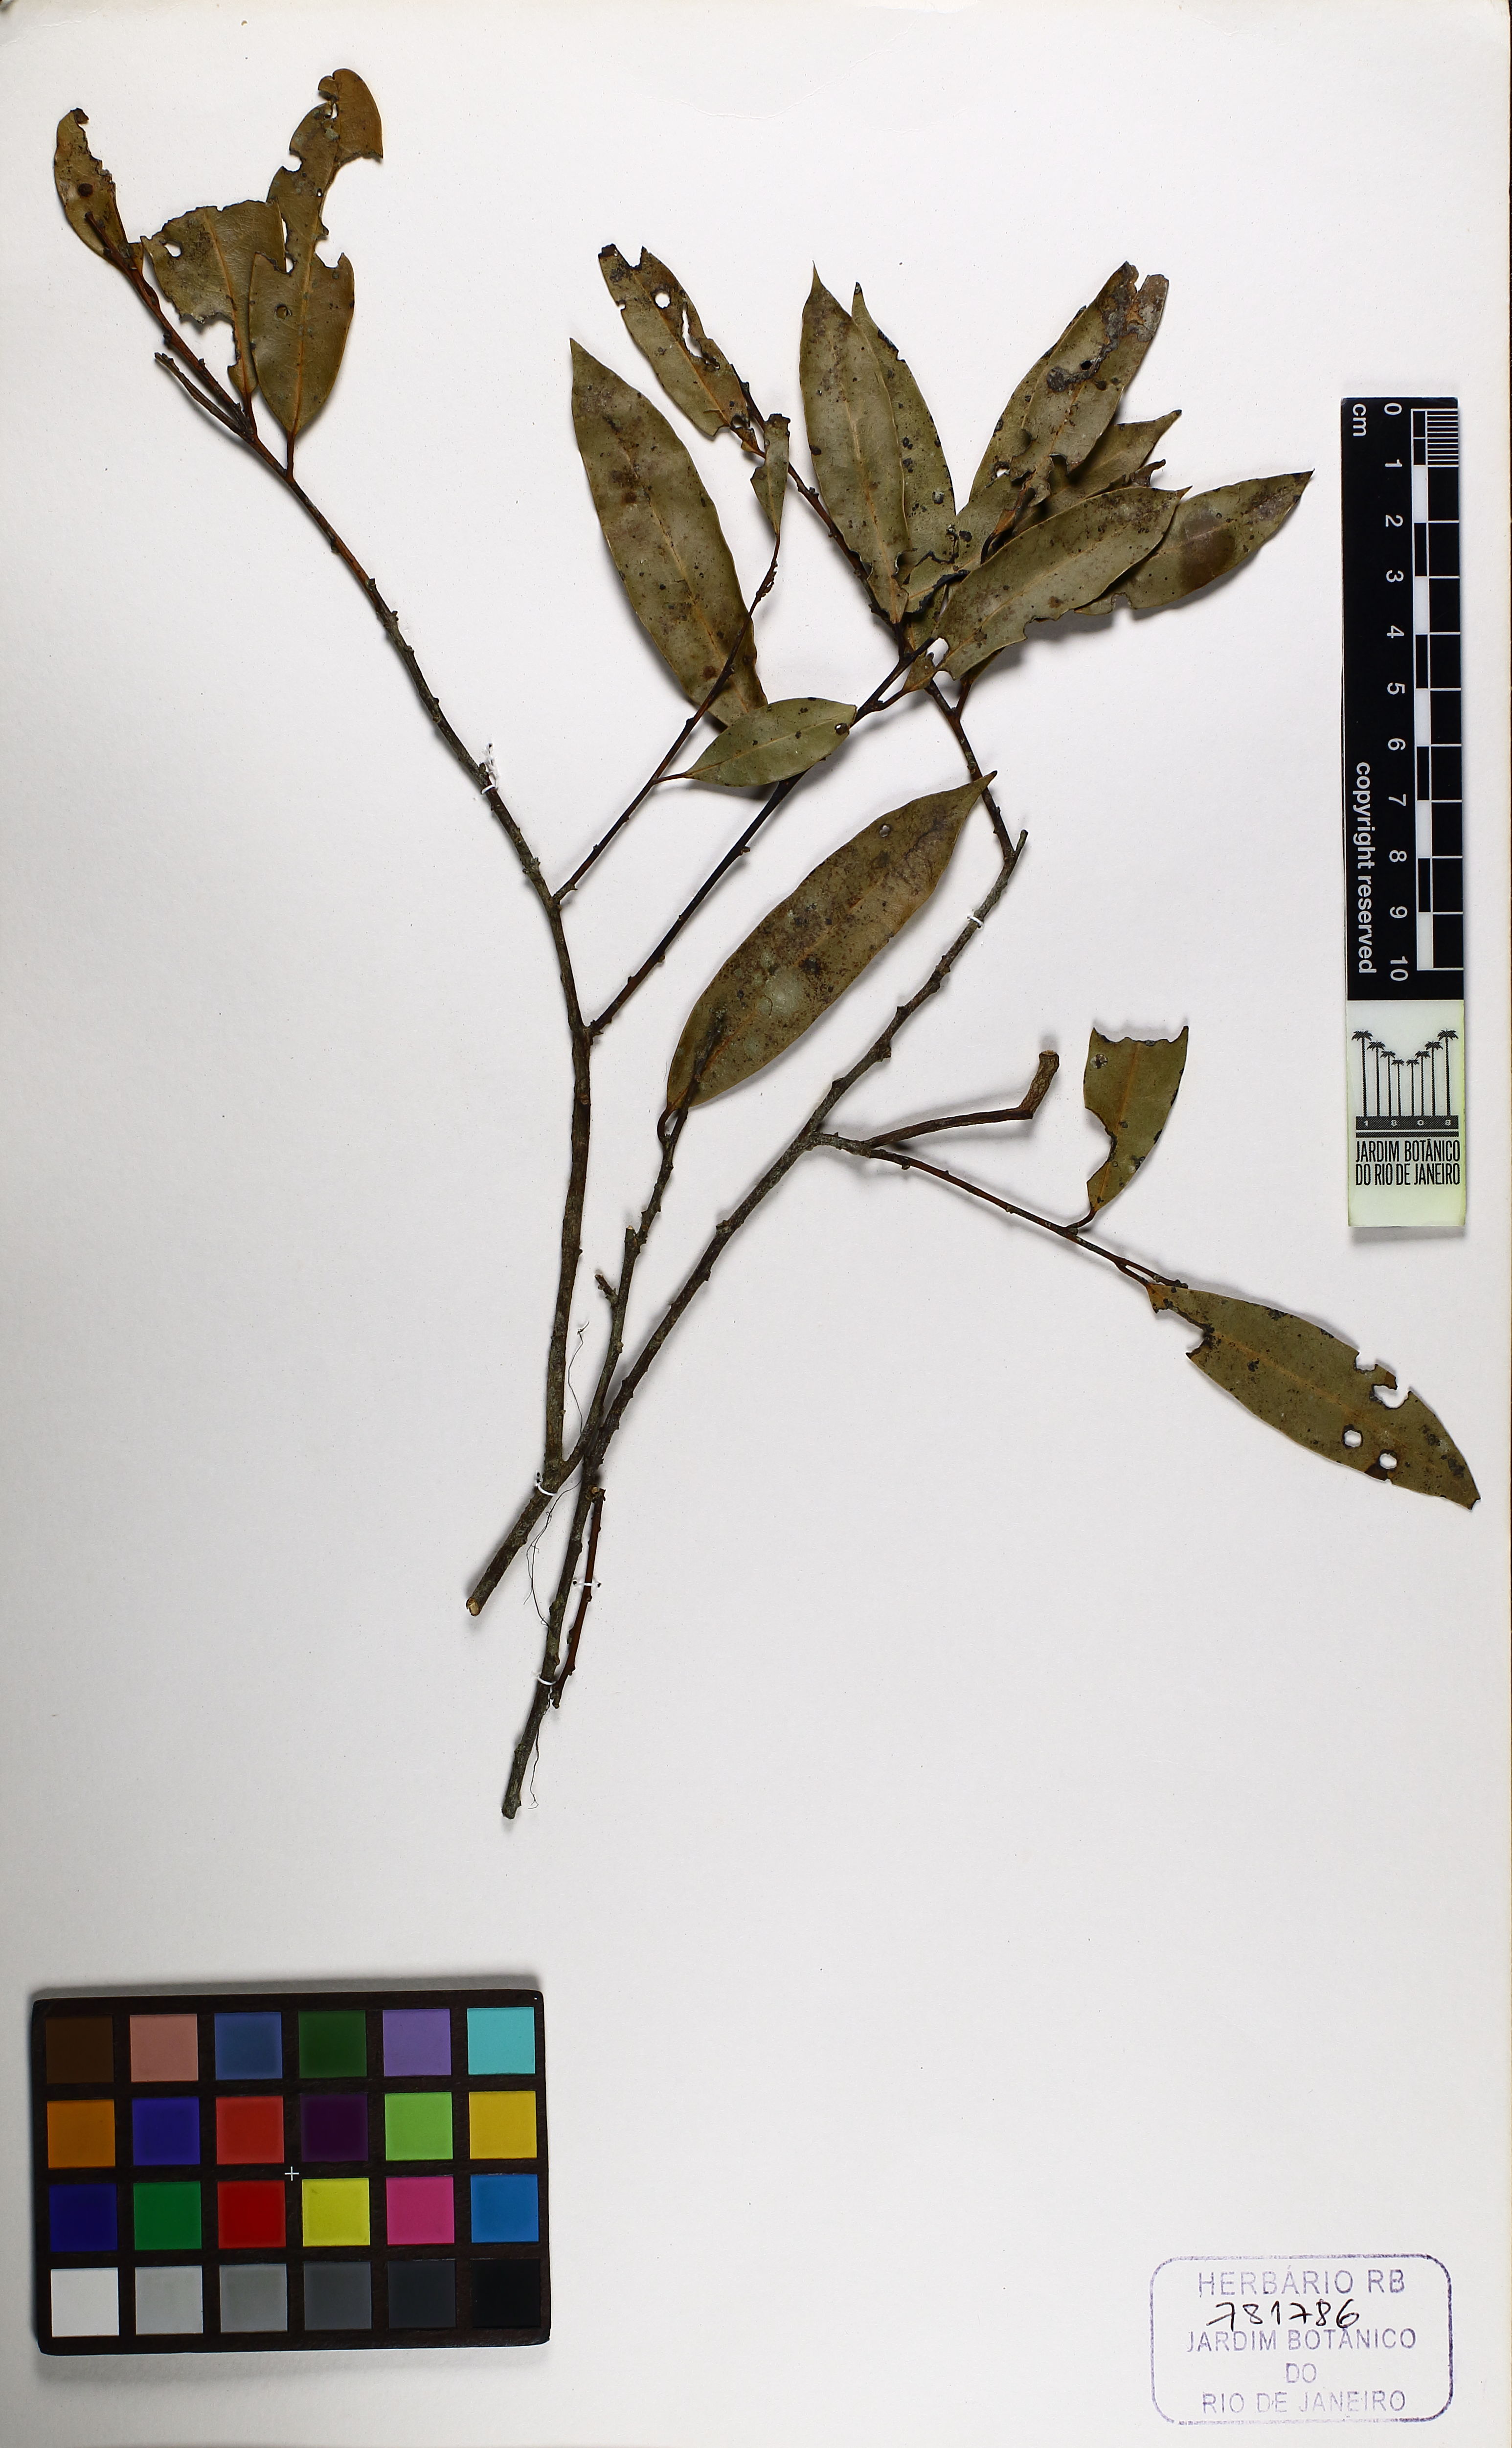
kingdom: Plantae
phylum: Tracheophyta
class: Magnoliopsida
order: Laurales
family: Lauraceae
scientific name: Lauraceae
